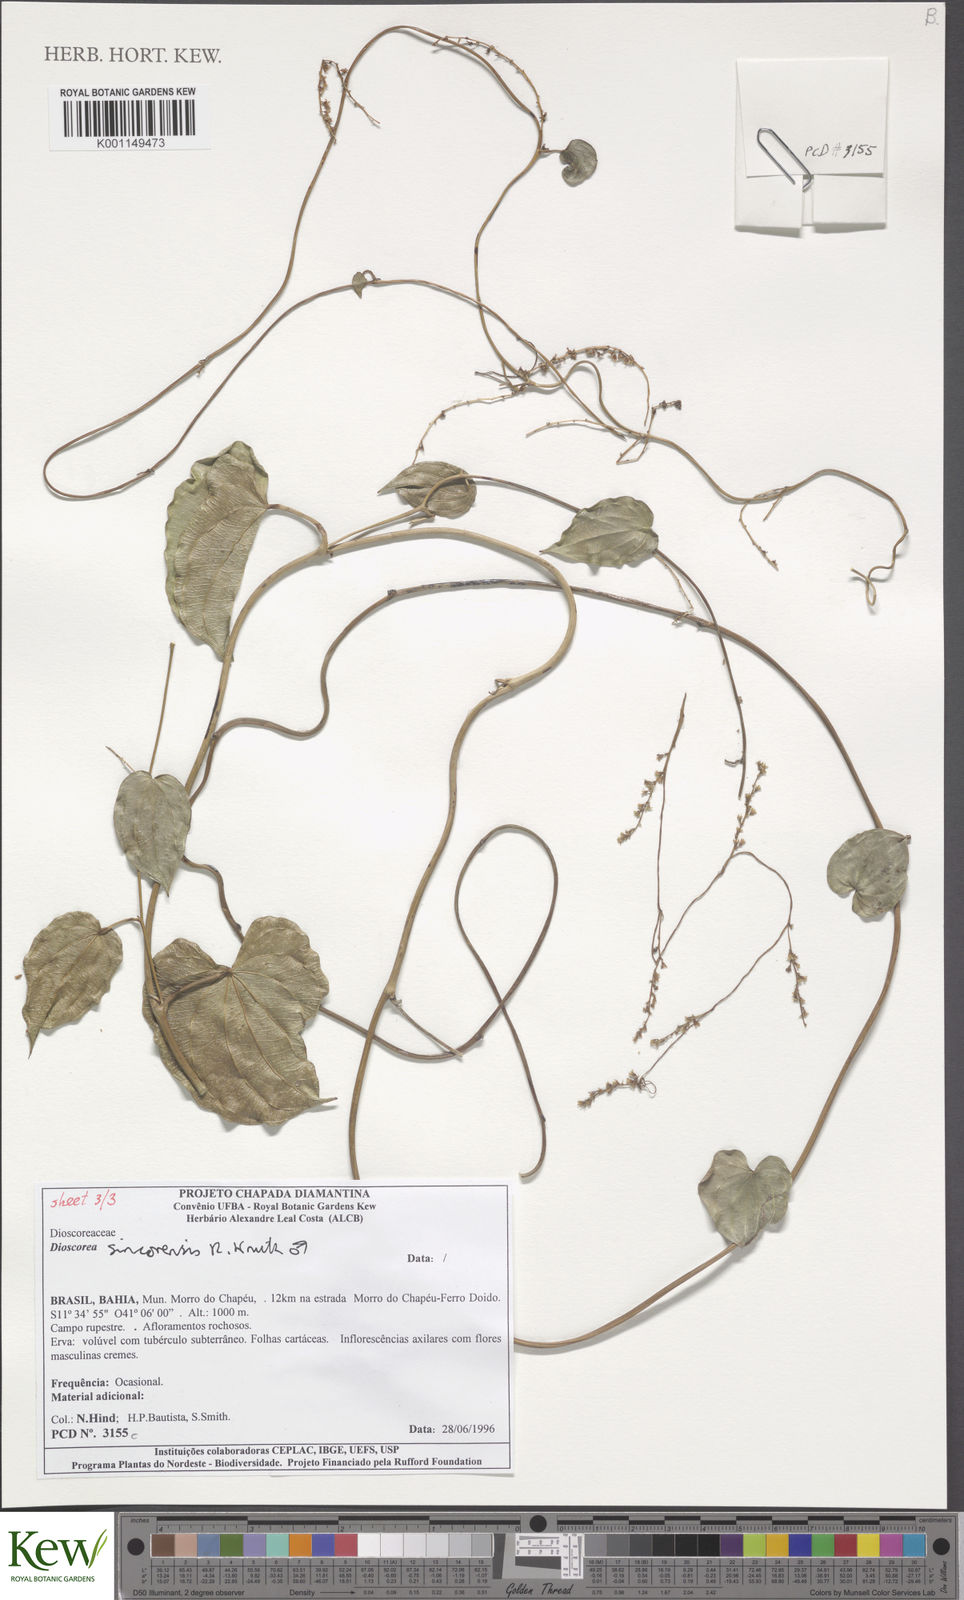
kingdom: Plantae
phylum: Tracheophyta
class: Liliopsida
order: Dioscoreales
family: Dioscoreaceae
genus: Dioscorea
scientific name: Dioscorea sincorensis
